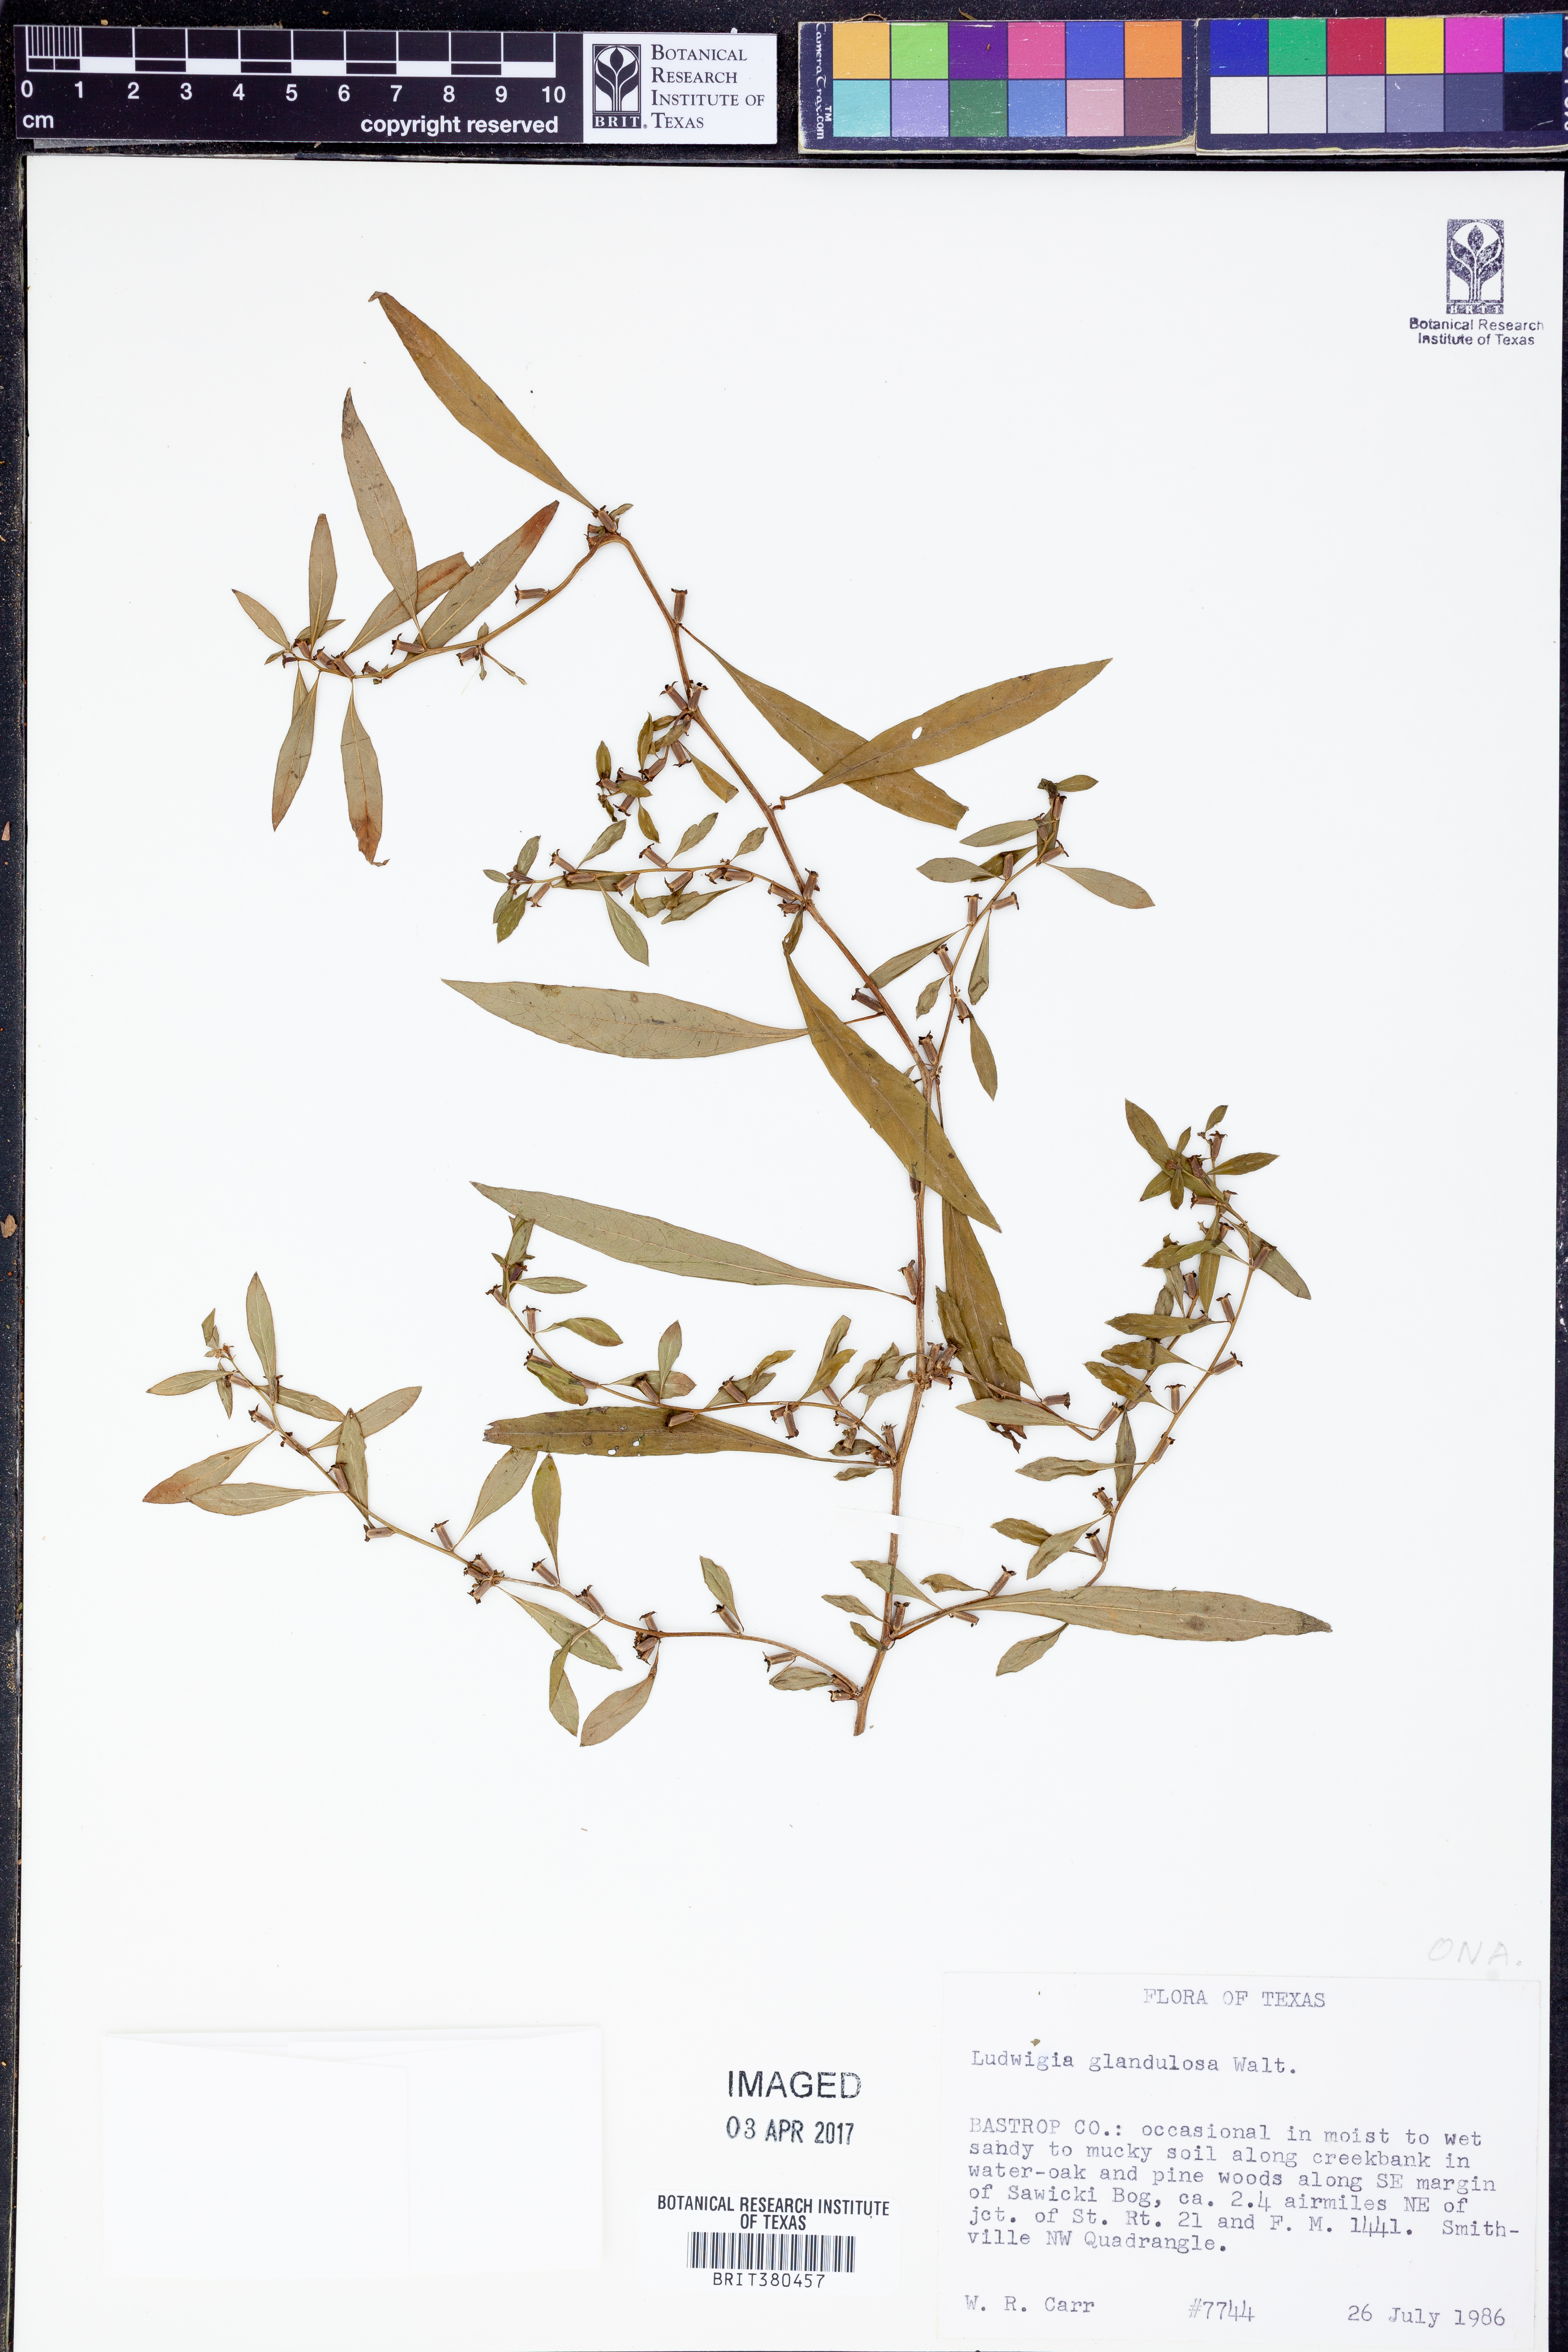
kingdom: Plantae
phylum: Tracheophyta
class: Magnoliopsida
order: Myrtales
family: Onagraceae
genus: Ludwigia
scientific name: Ludwigia glandulosa
